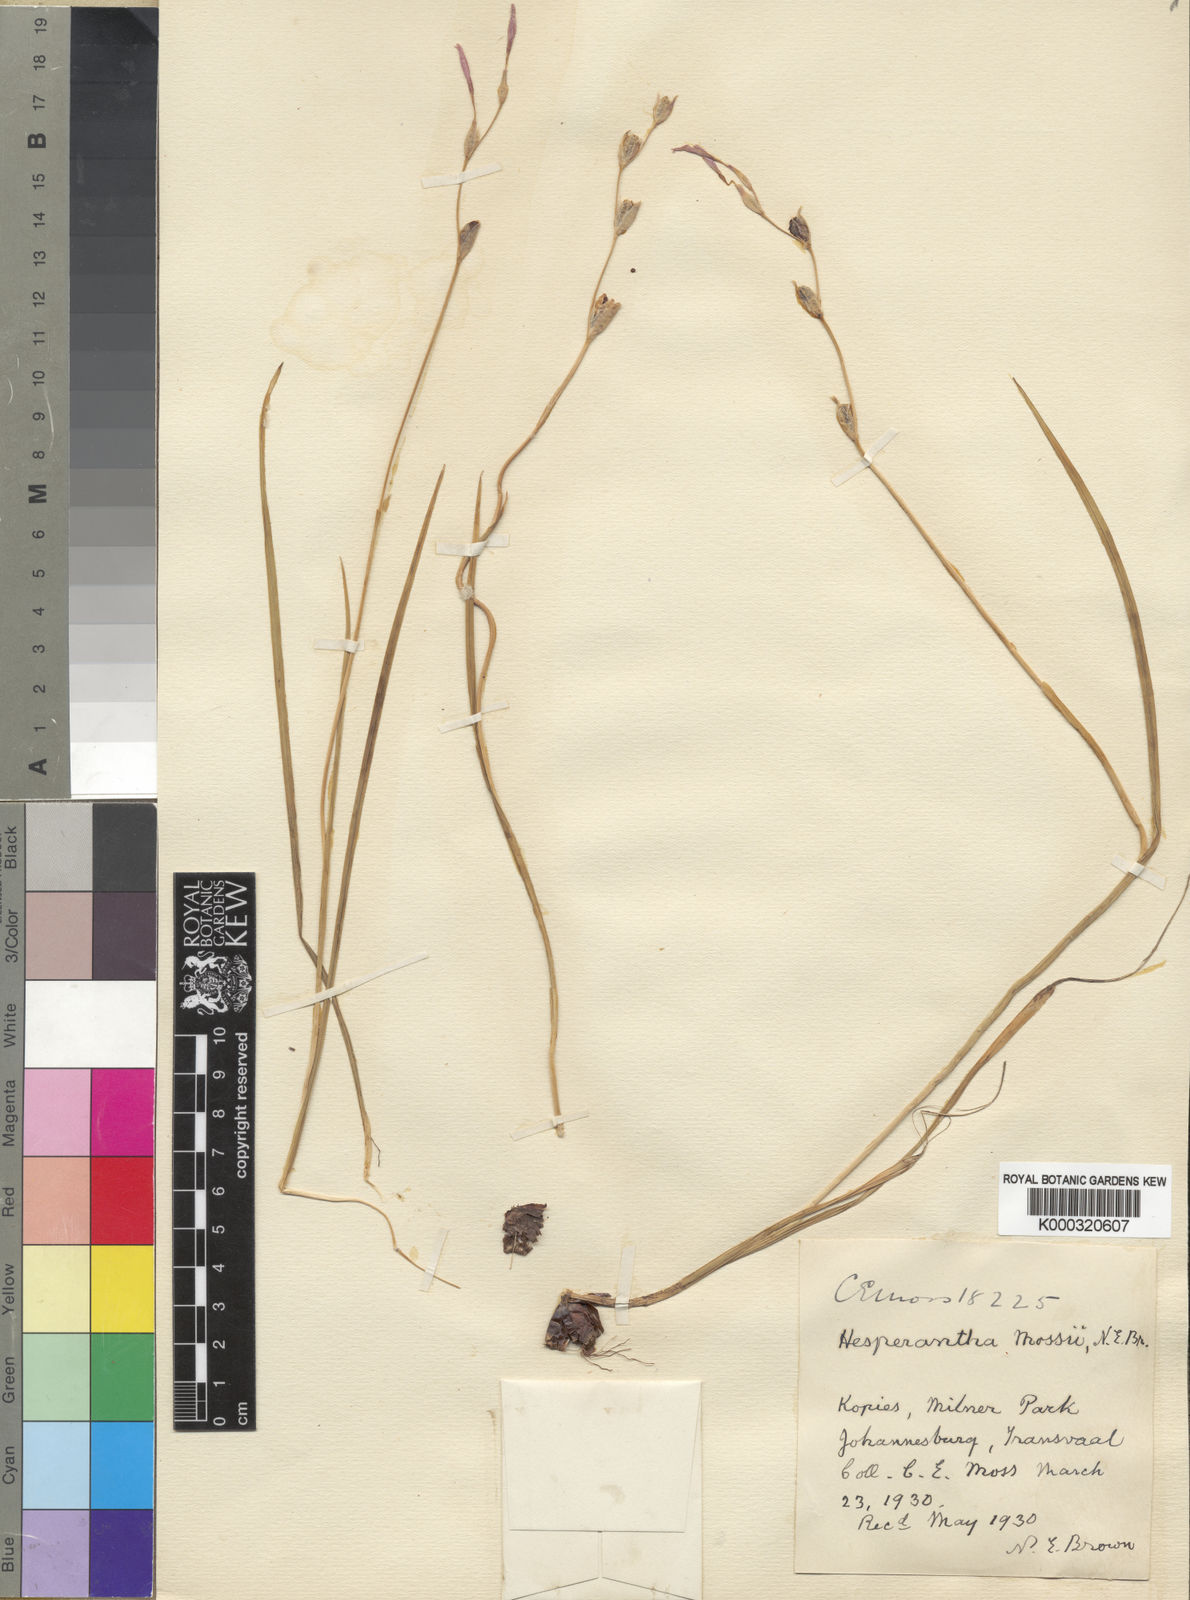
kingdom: Plantae
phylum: Tracheophyta
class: Liliopsida
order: Asparagales
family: Iridaceae
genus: Hesperantha
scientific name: Hesperantha
